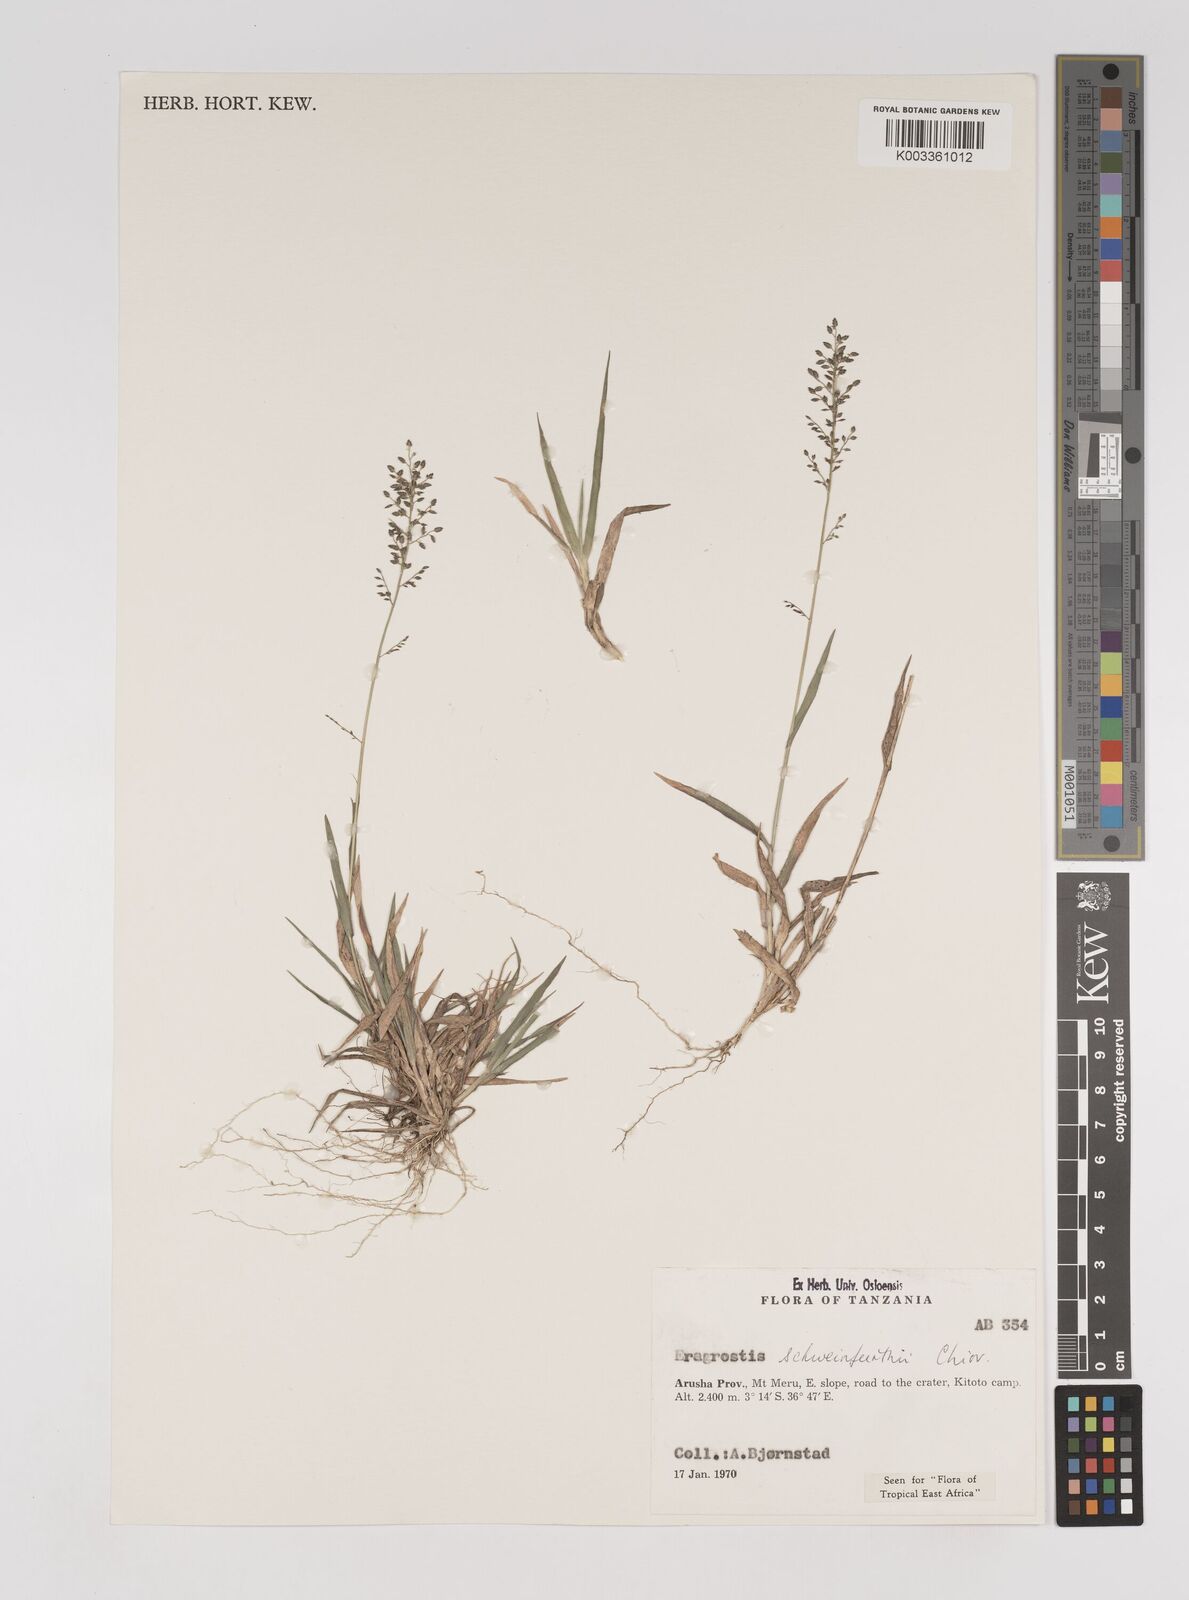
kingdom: Plantae
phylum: Tracheophyta
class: Liliopsida
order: Poales
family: Poaceae
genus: Eragrostis
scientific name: Eragrostis schweinfurthii
